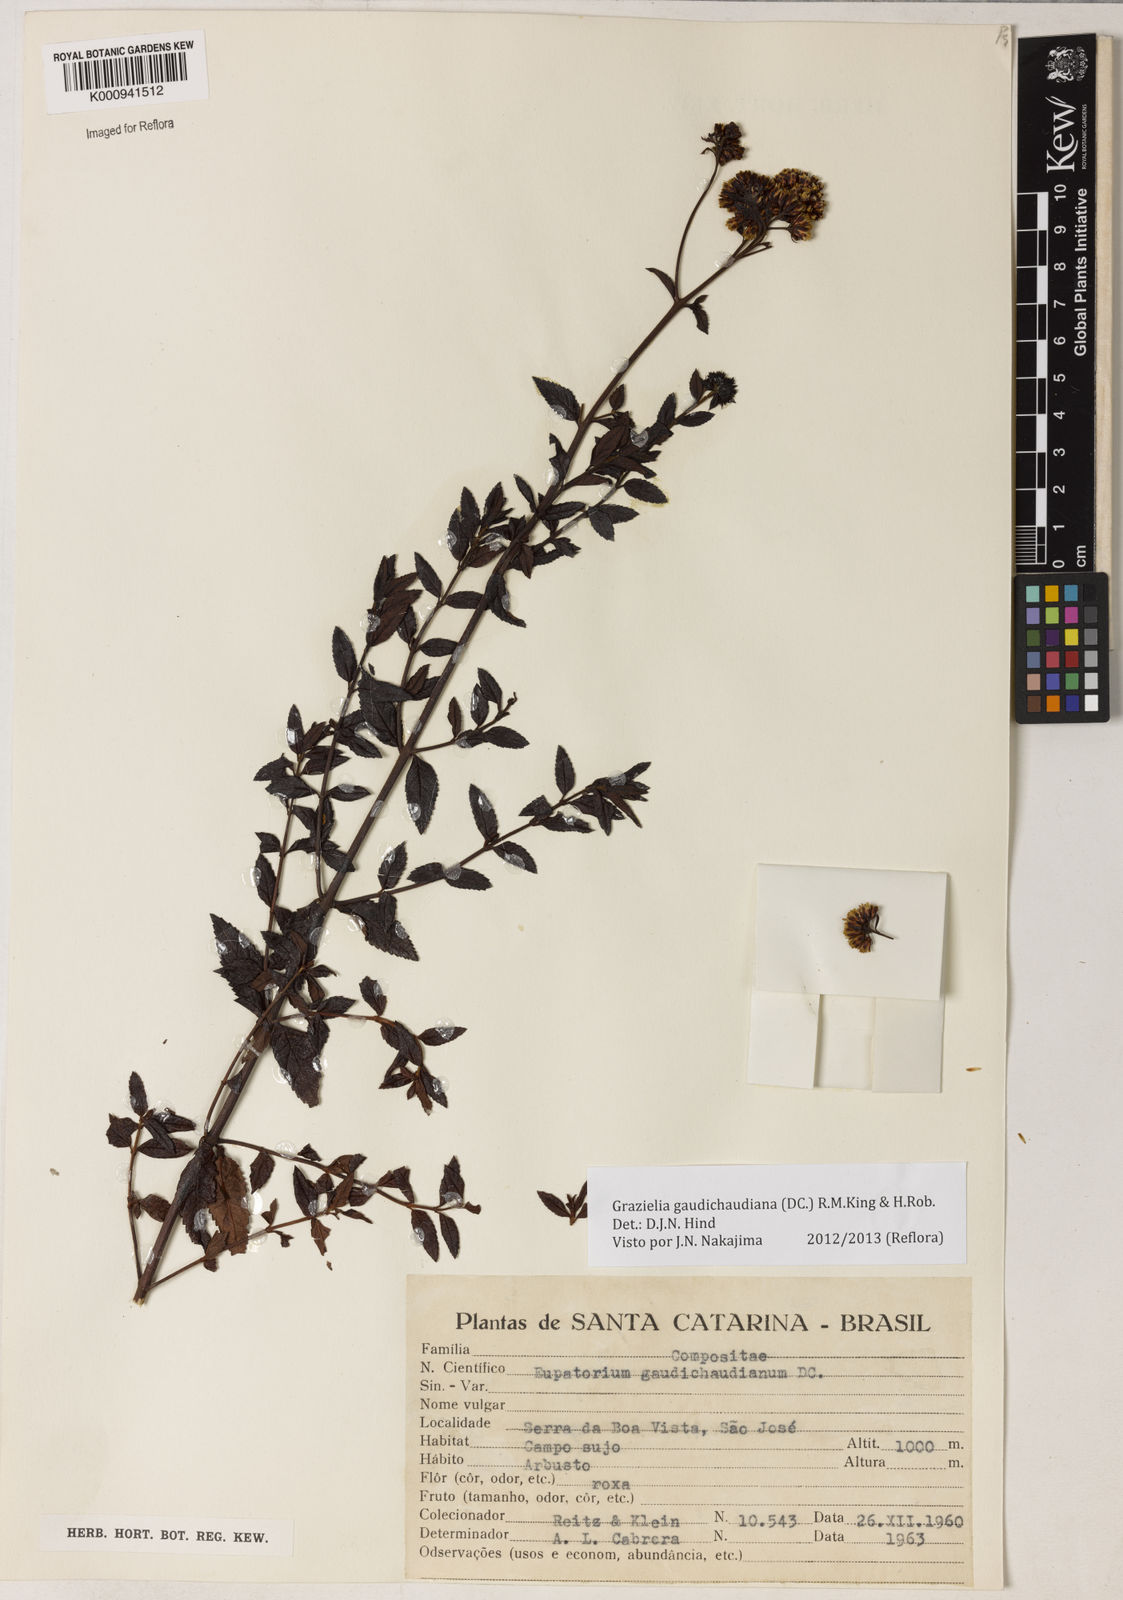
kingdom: Plantae
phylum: Tracheophyta
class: Magnoliopsida
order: Asterales
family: Asteraceae
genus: Grazielia
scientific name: Grazielia
